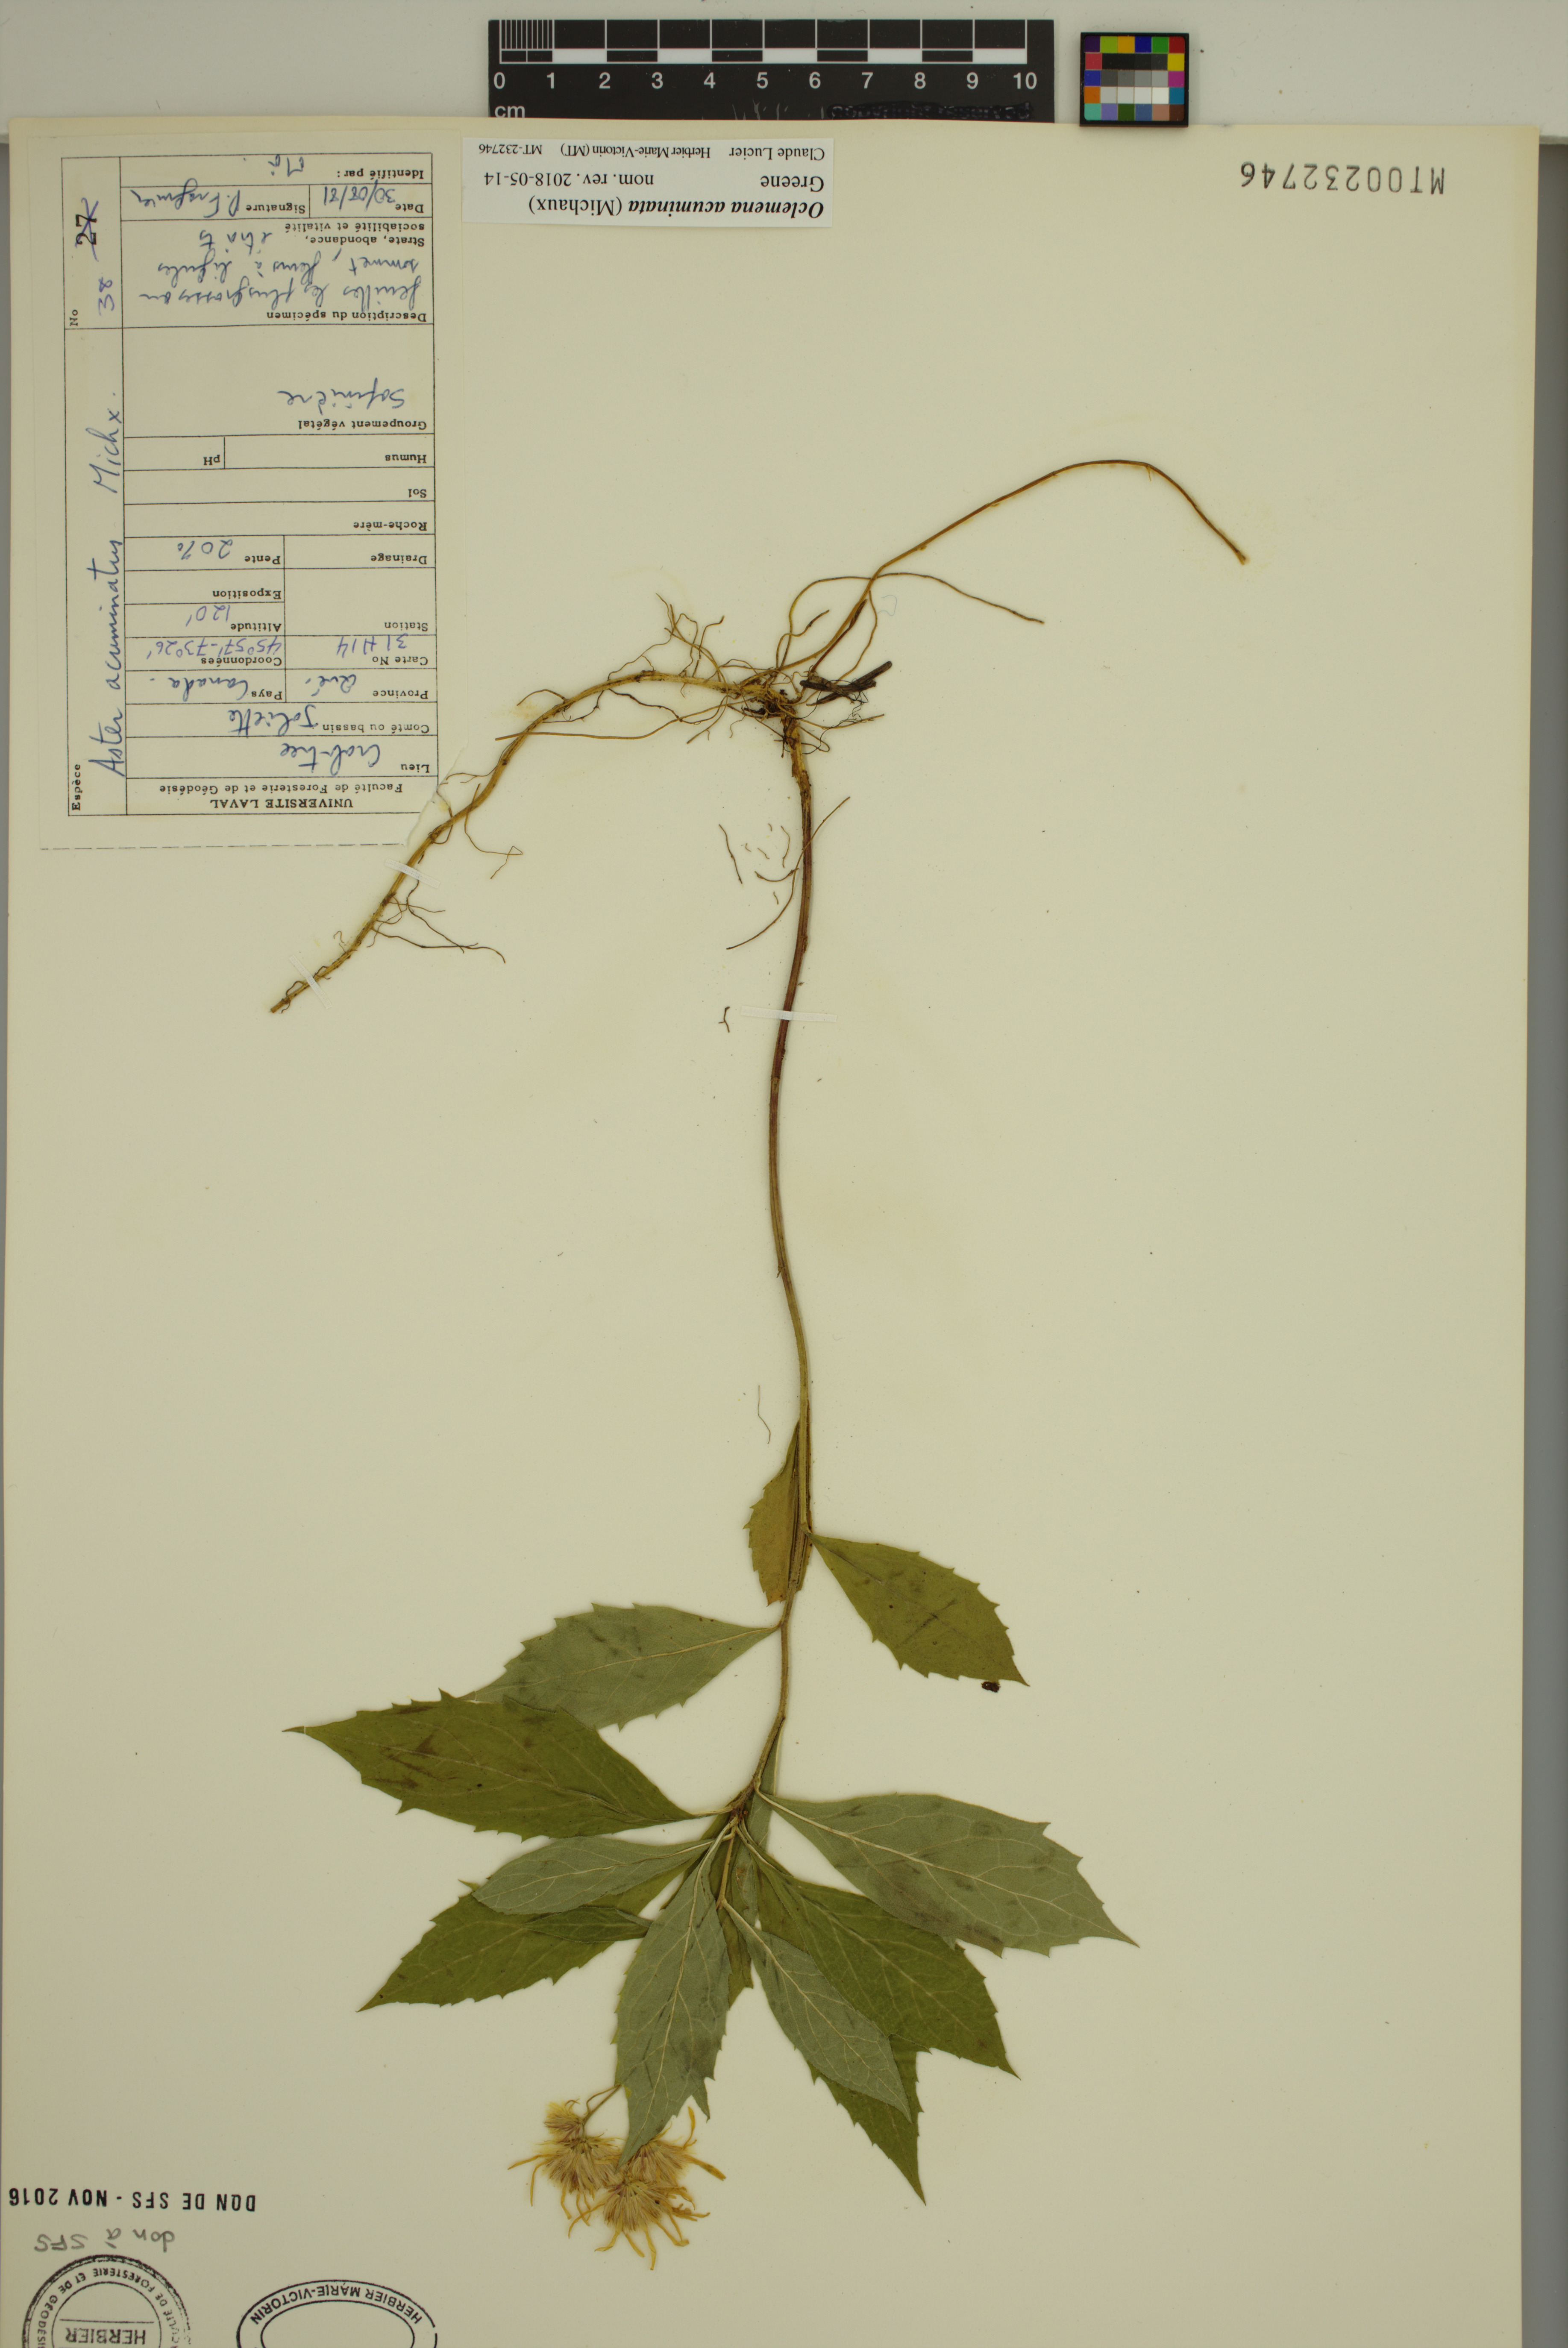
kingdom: Plantae
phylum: Tracheophyta
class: Magnoliopsida
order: Asterales
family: Asteraceae
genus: Oclemena
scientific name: Oclemena acuminata
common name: Mountain aster
